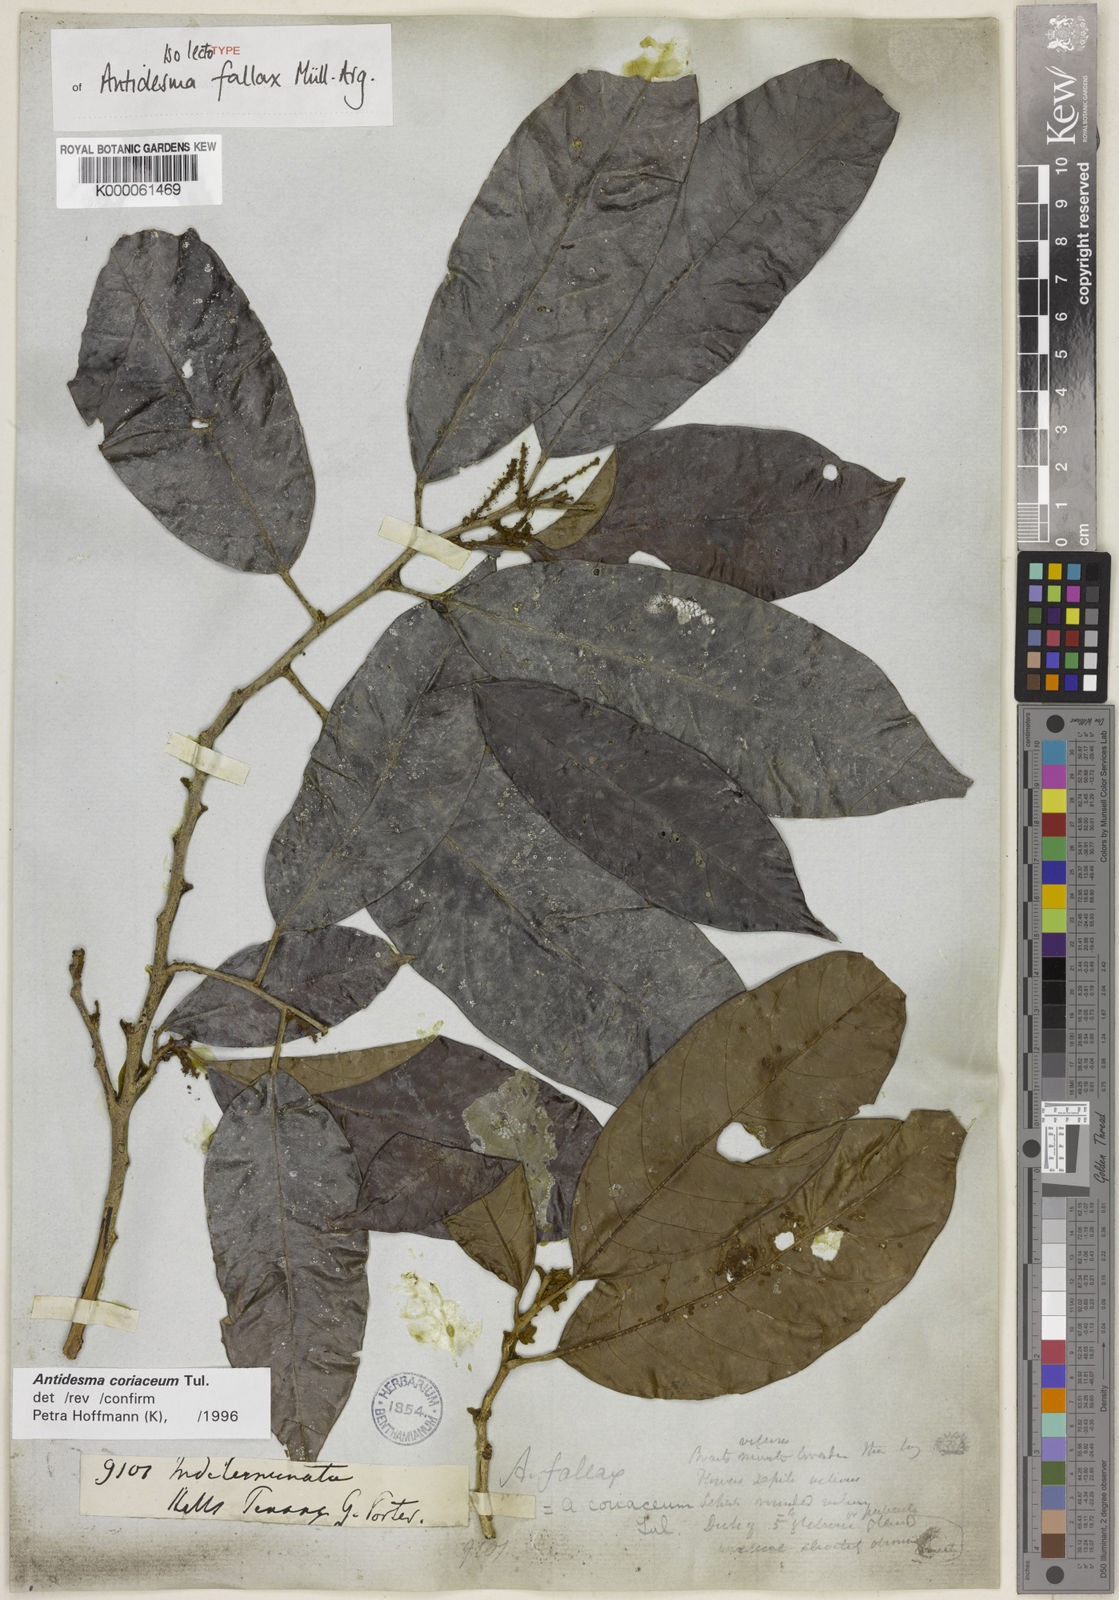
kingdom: Plantae
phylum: Tracheophyta
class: Magnoliopsida
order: Malpighiales
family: Phyllanthaceae
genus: Antidesma
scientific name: Antidesma coriaceum
